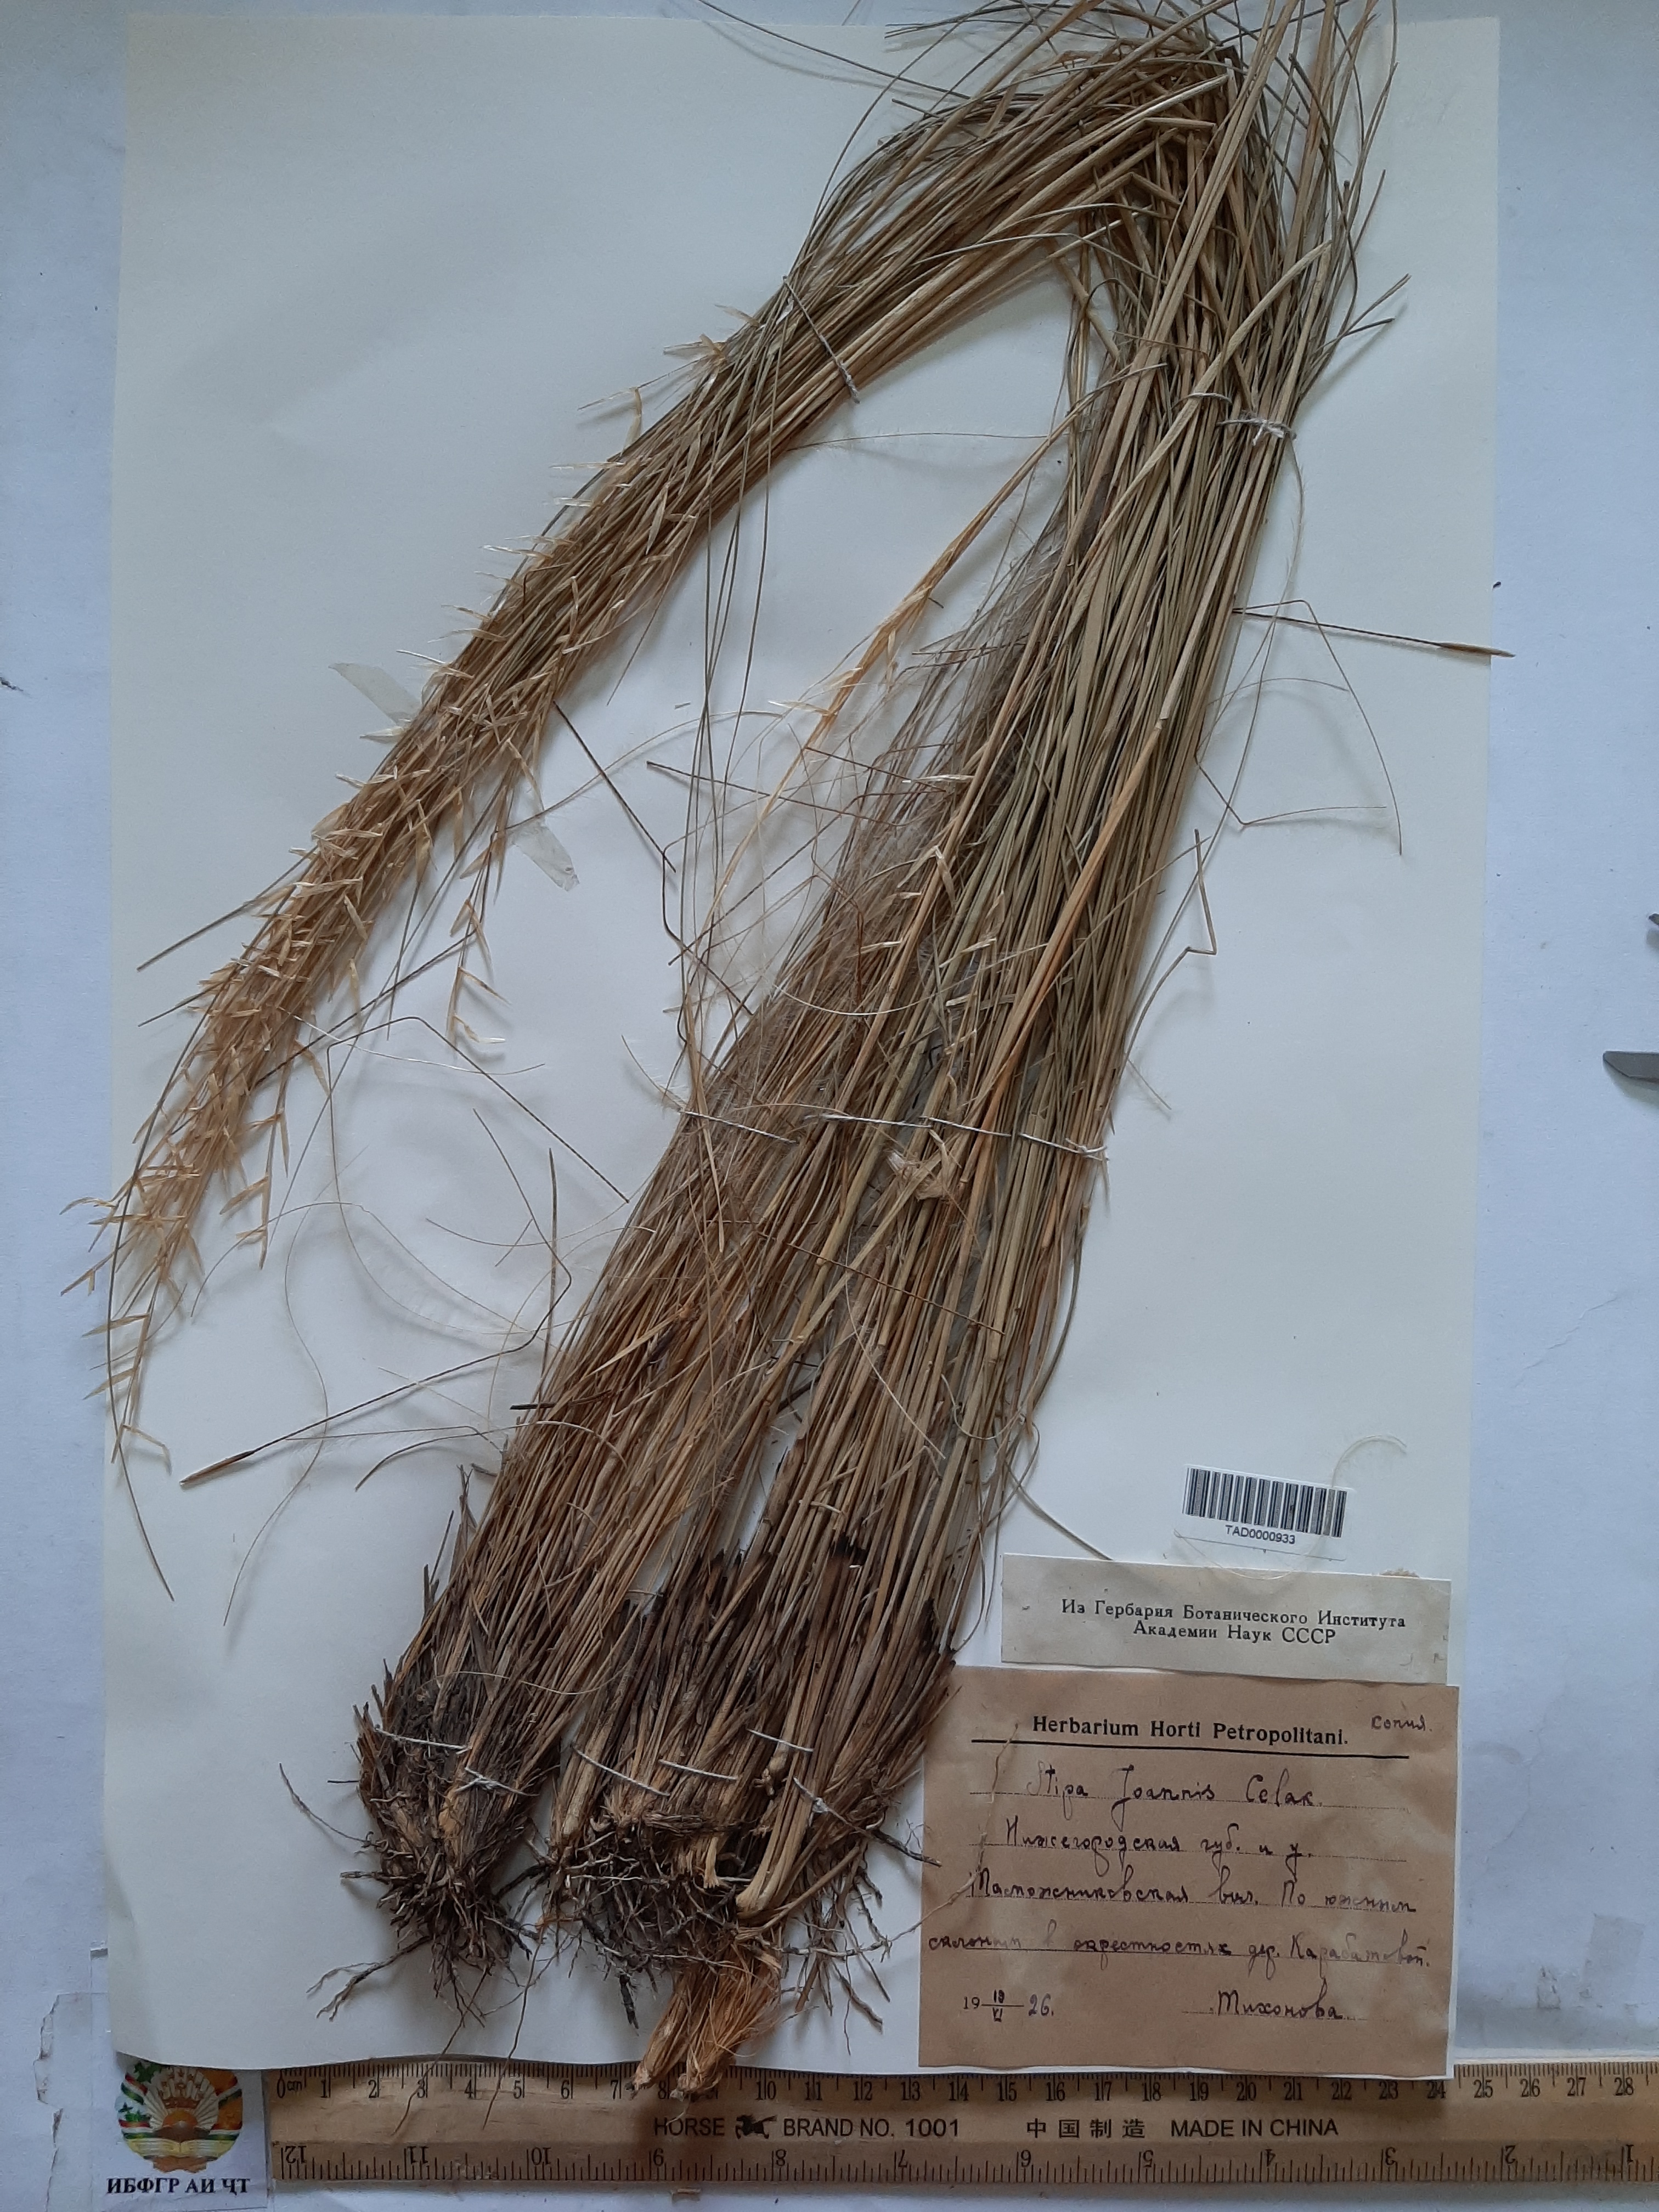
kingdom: Plantae
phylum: Tracheophyta
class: Liliopsida
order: Poales
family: Poaceae
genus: Stipa
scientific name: Stipa pennata
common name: European feather grass
